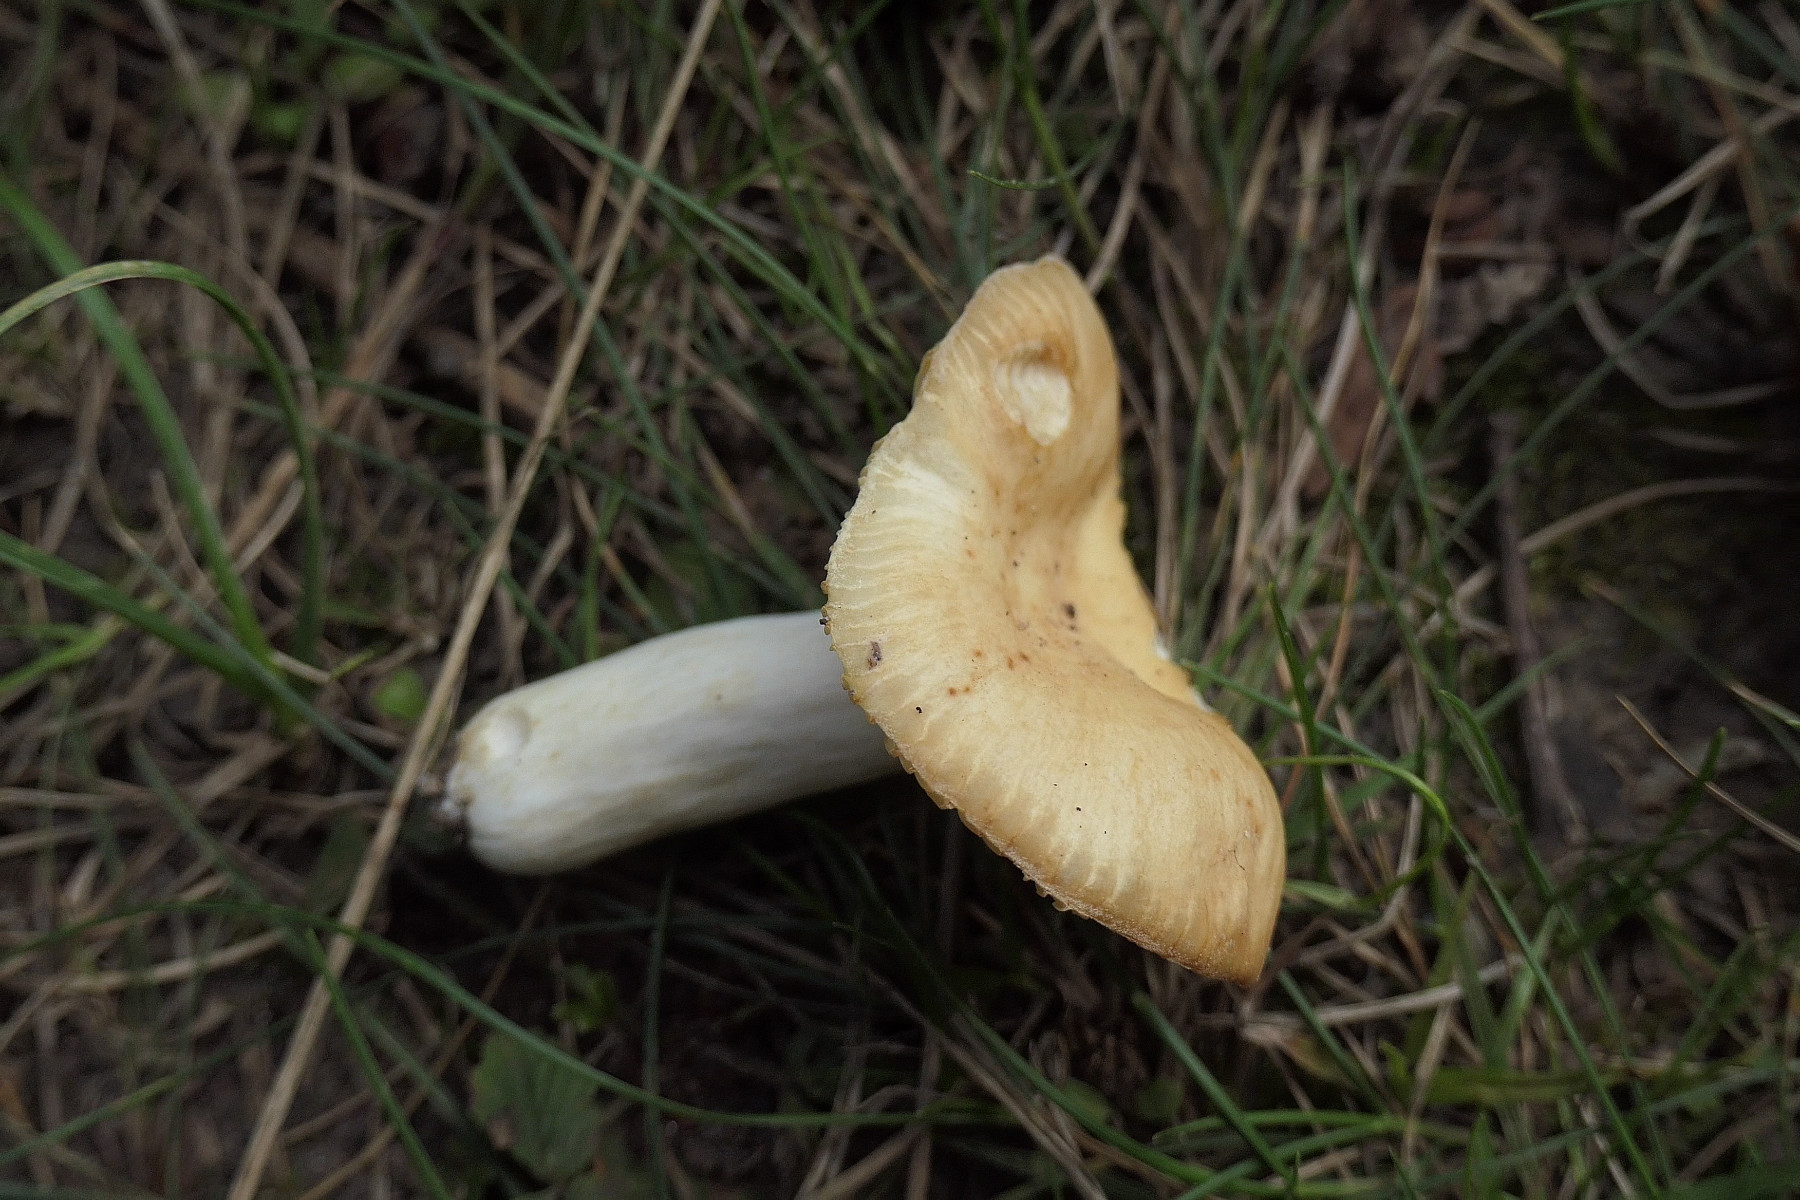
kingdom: Fungi
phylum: Basidiomycota
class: Agaricomycetes
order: Russulales
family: Russulaceae
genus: Russula
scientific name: Russula farinipes
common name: gul kam-skørhat
